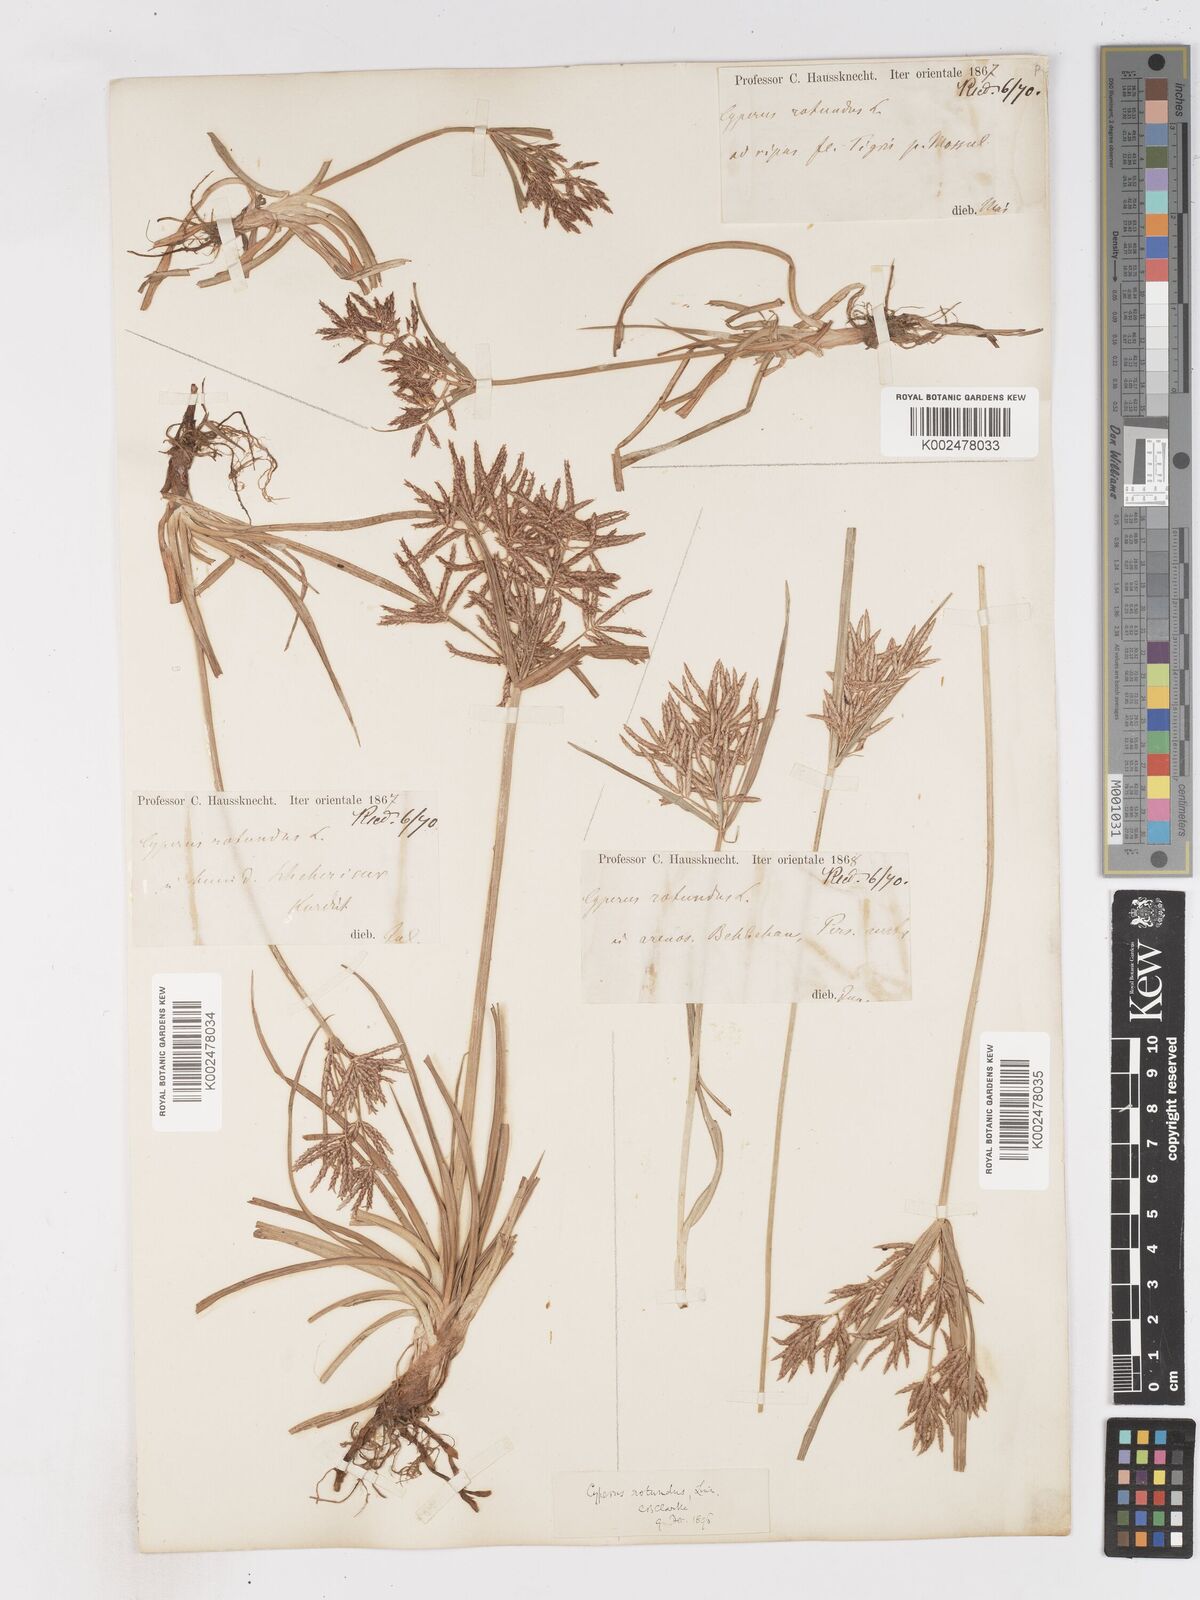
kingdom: Plantae
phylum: Tracheophyta
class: Liliopsida
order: Poales
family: Cyperaceae
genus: Cyperus
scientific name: Cyperus rotundus
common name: Nutgrass
